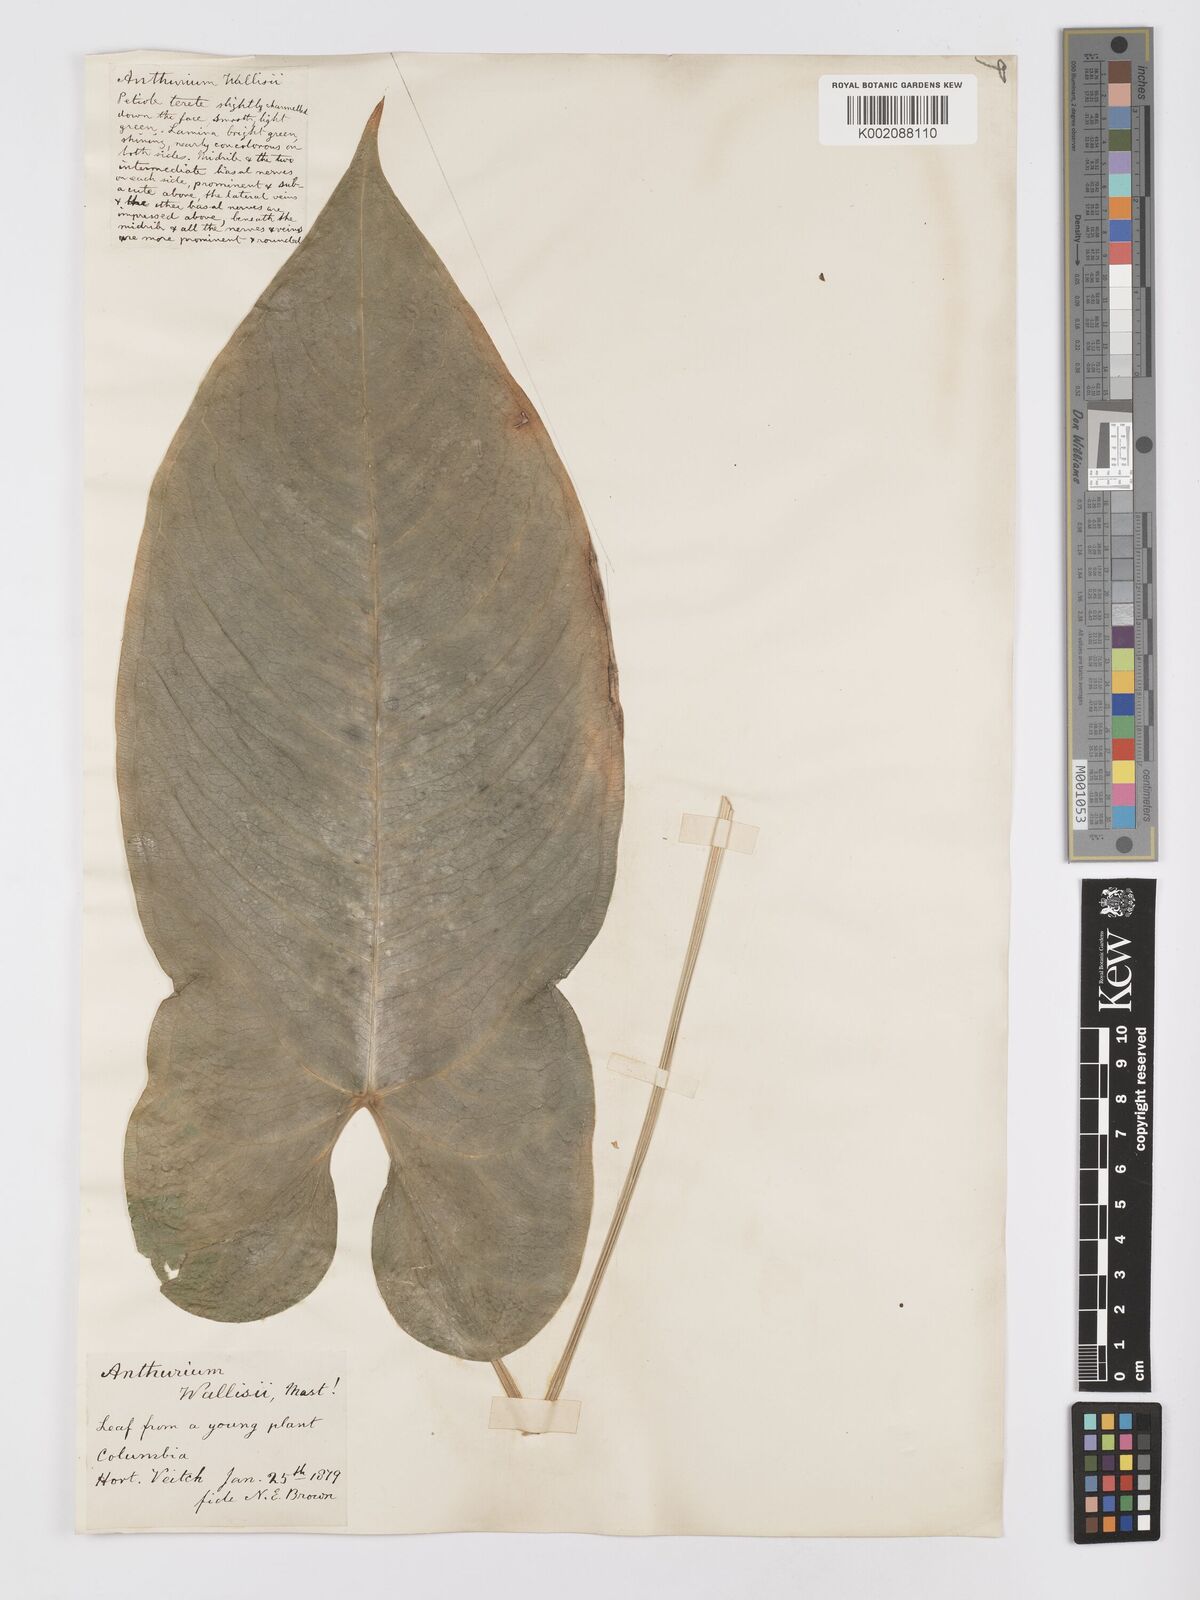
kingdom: Plantae
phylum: Tracheophyta
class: Liliopsida
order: Alismatales
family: Araceae
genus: Anthurium
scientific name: Anthurium wallisii
